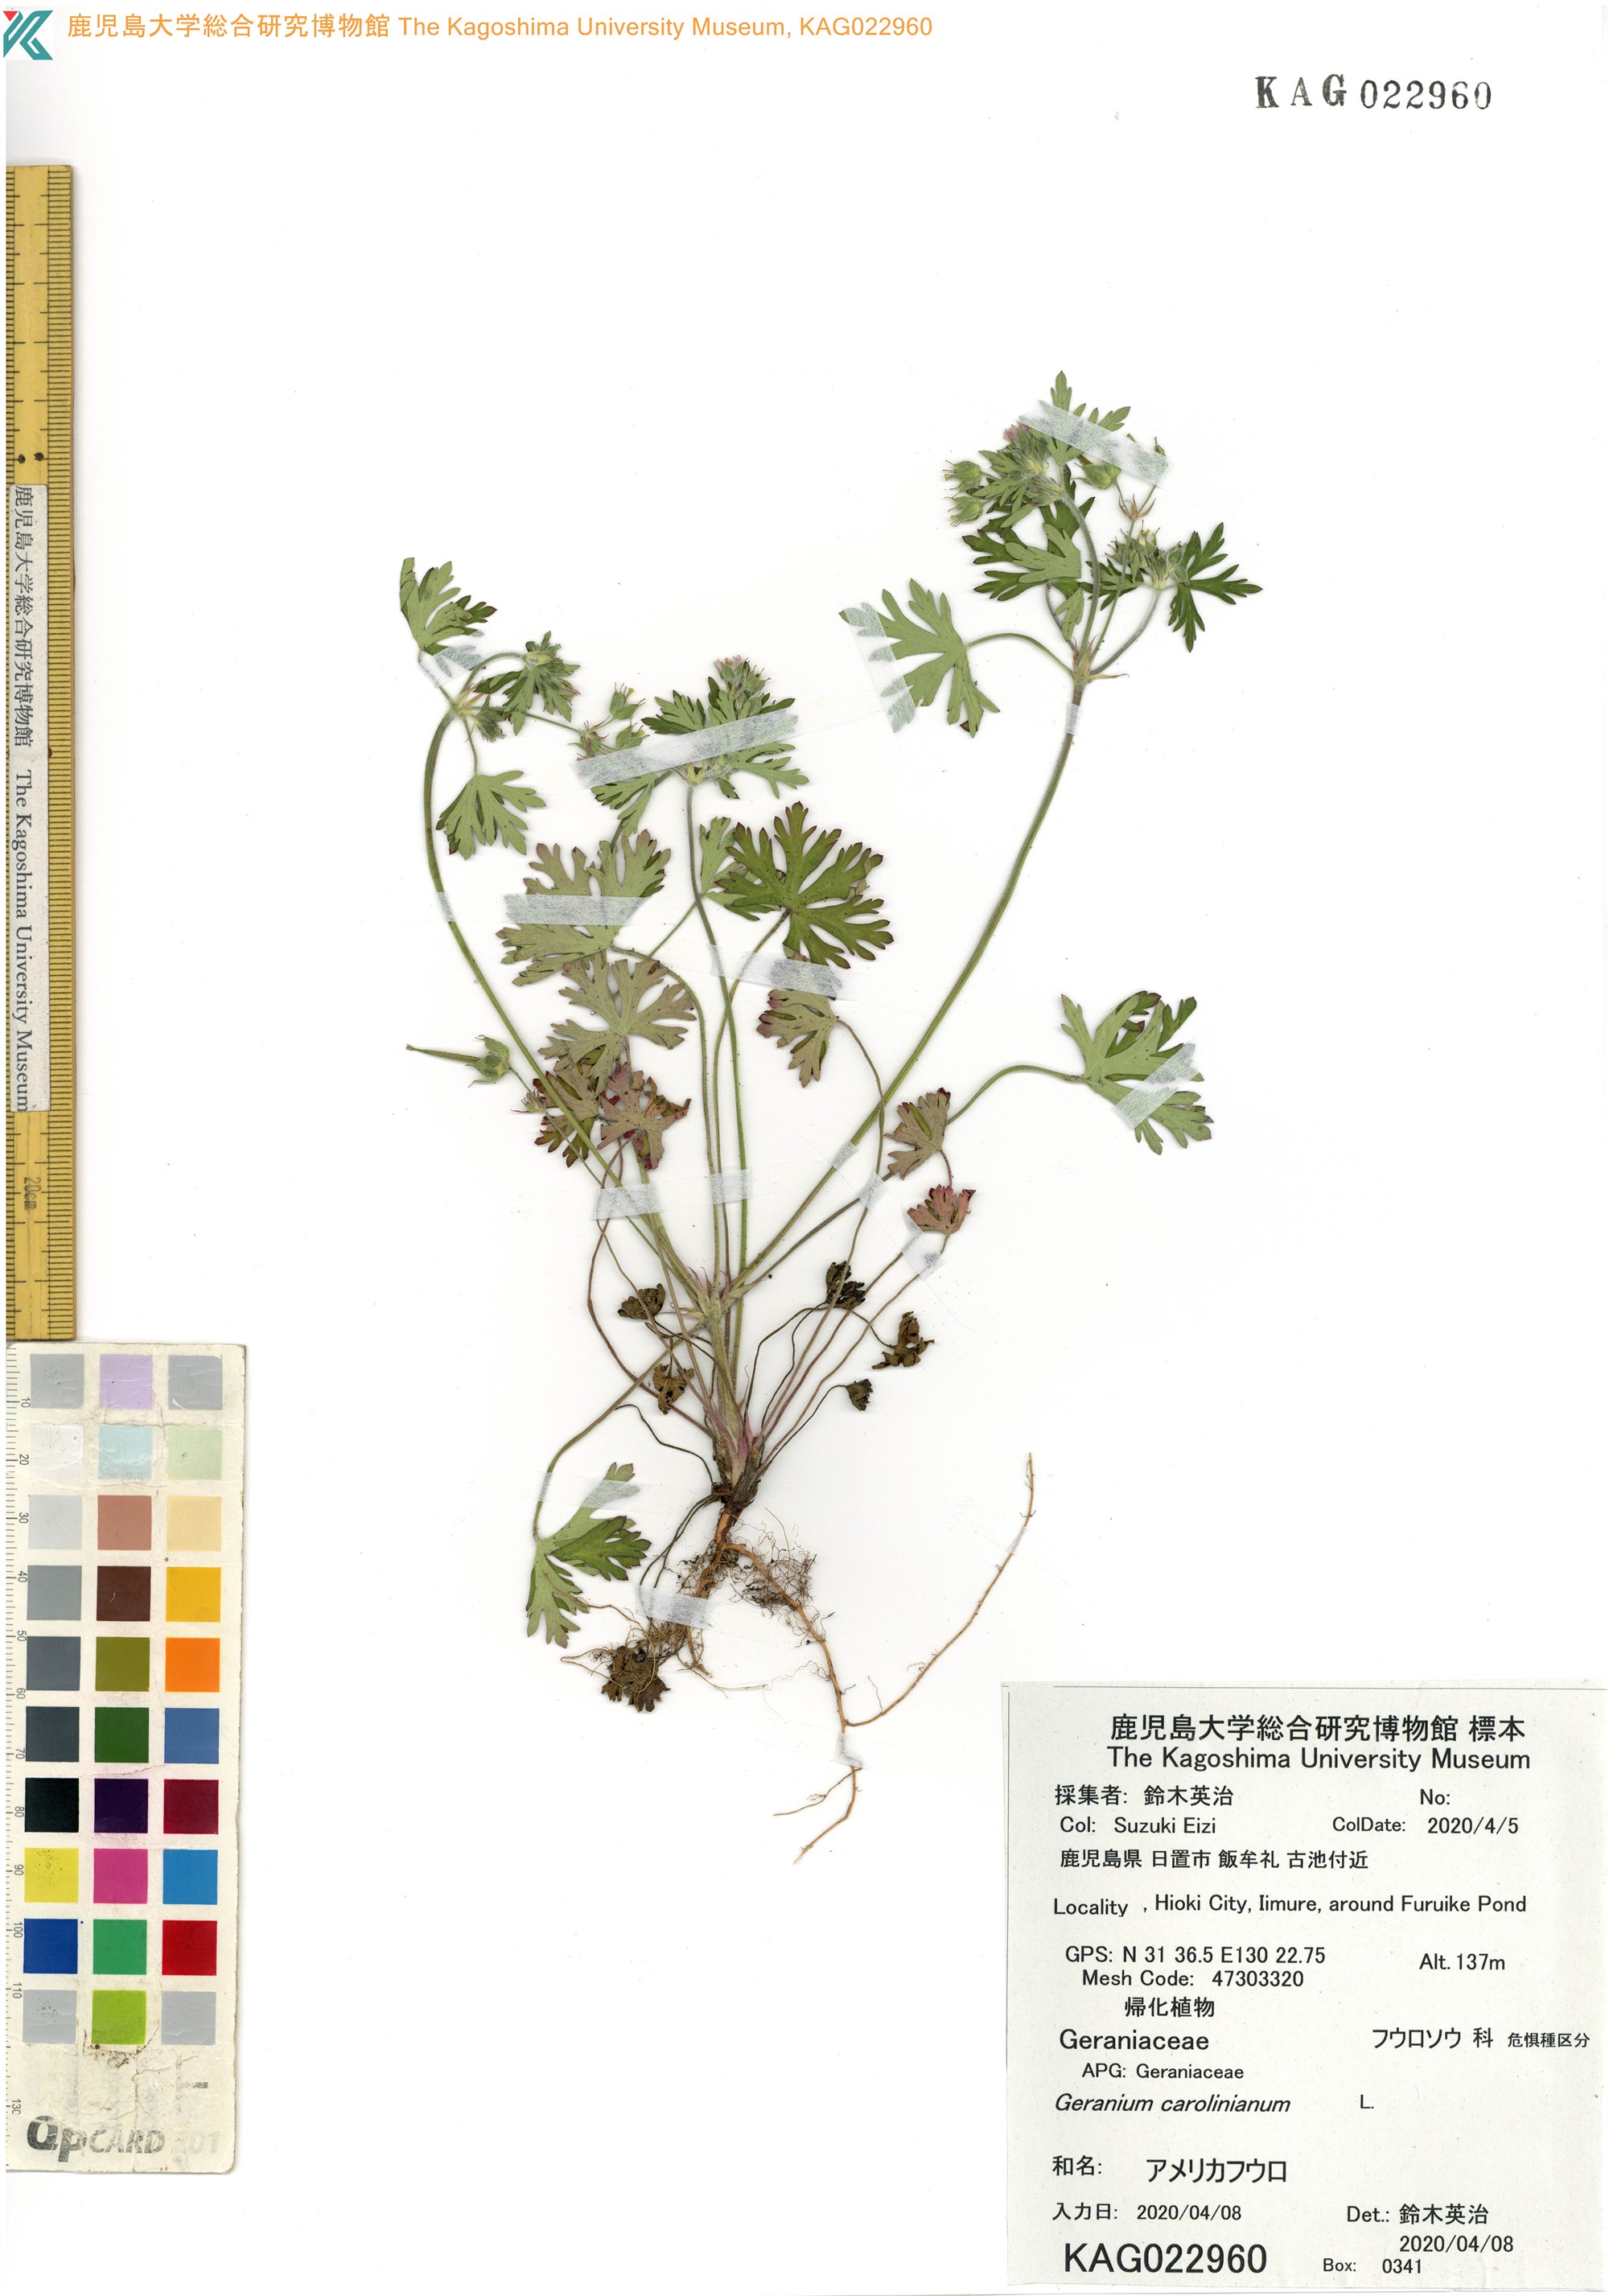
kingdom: Plantae
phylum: Tracheophyta
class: Magnoliopsida
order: Geraniales
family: Geraniaceae
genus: Geranium
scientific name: Geranium carolinianum
